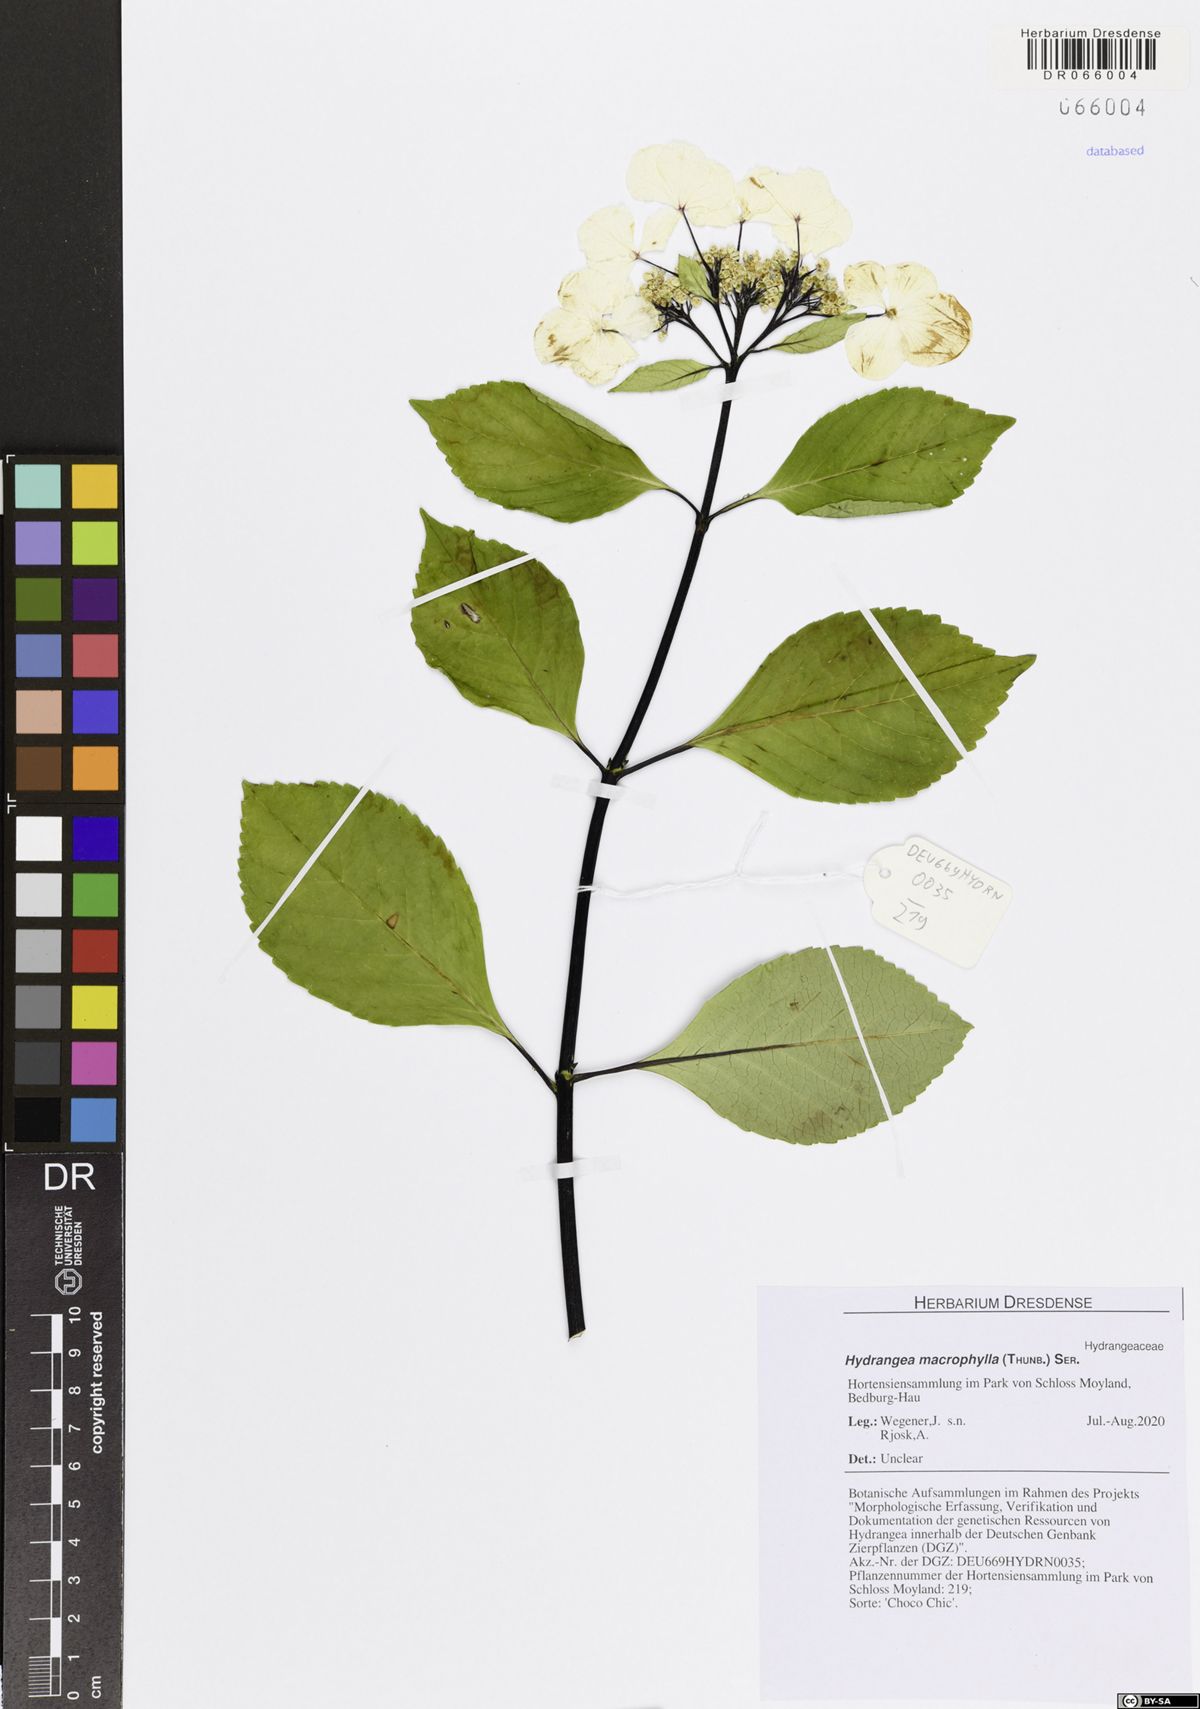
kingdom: Plantae
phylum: Tracheophyta
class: Magnoliopsida
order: Cornales
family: Hydrangeaceae
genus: Hydrangea
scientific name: Hydrangea macrophylla
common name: Hydrangea
